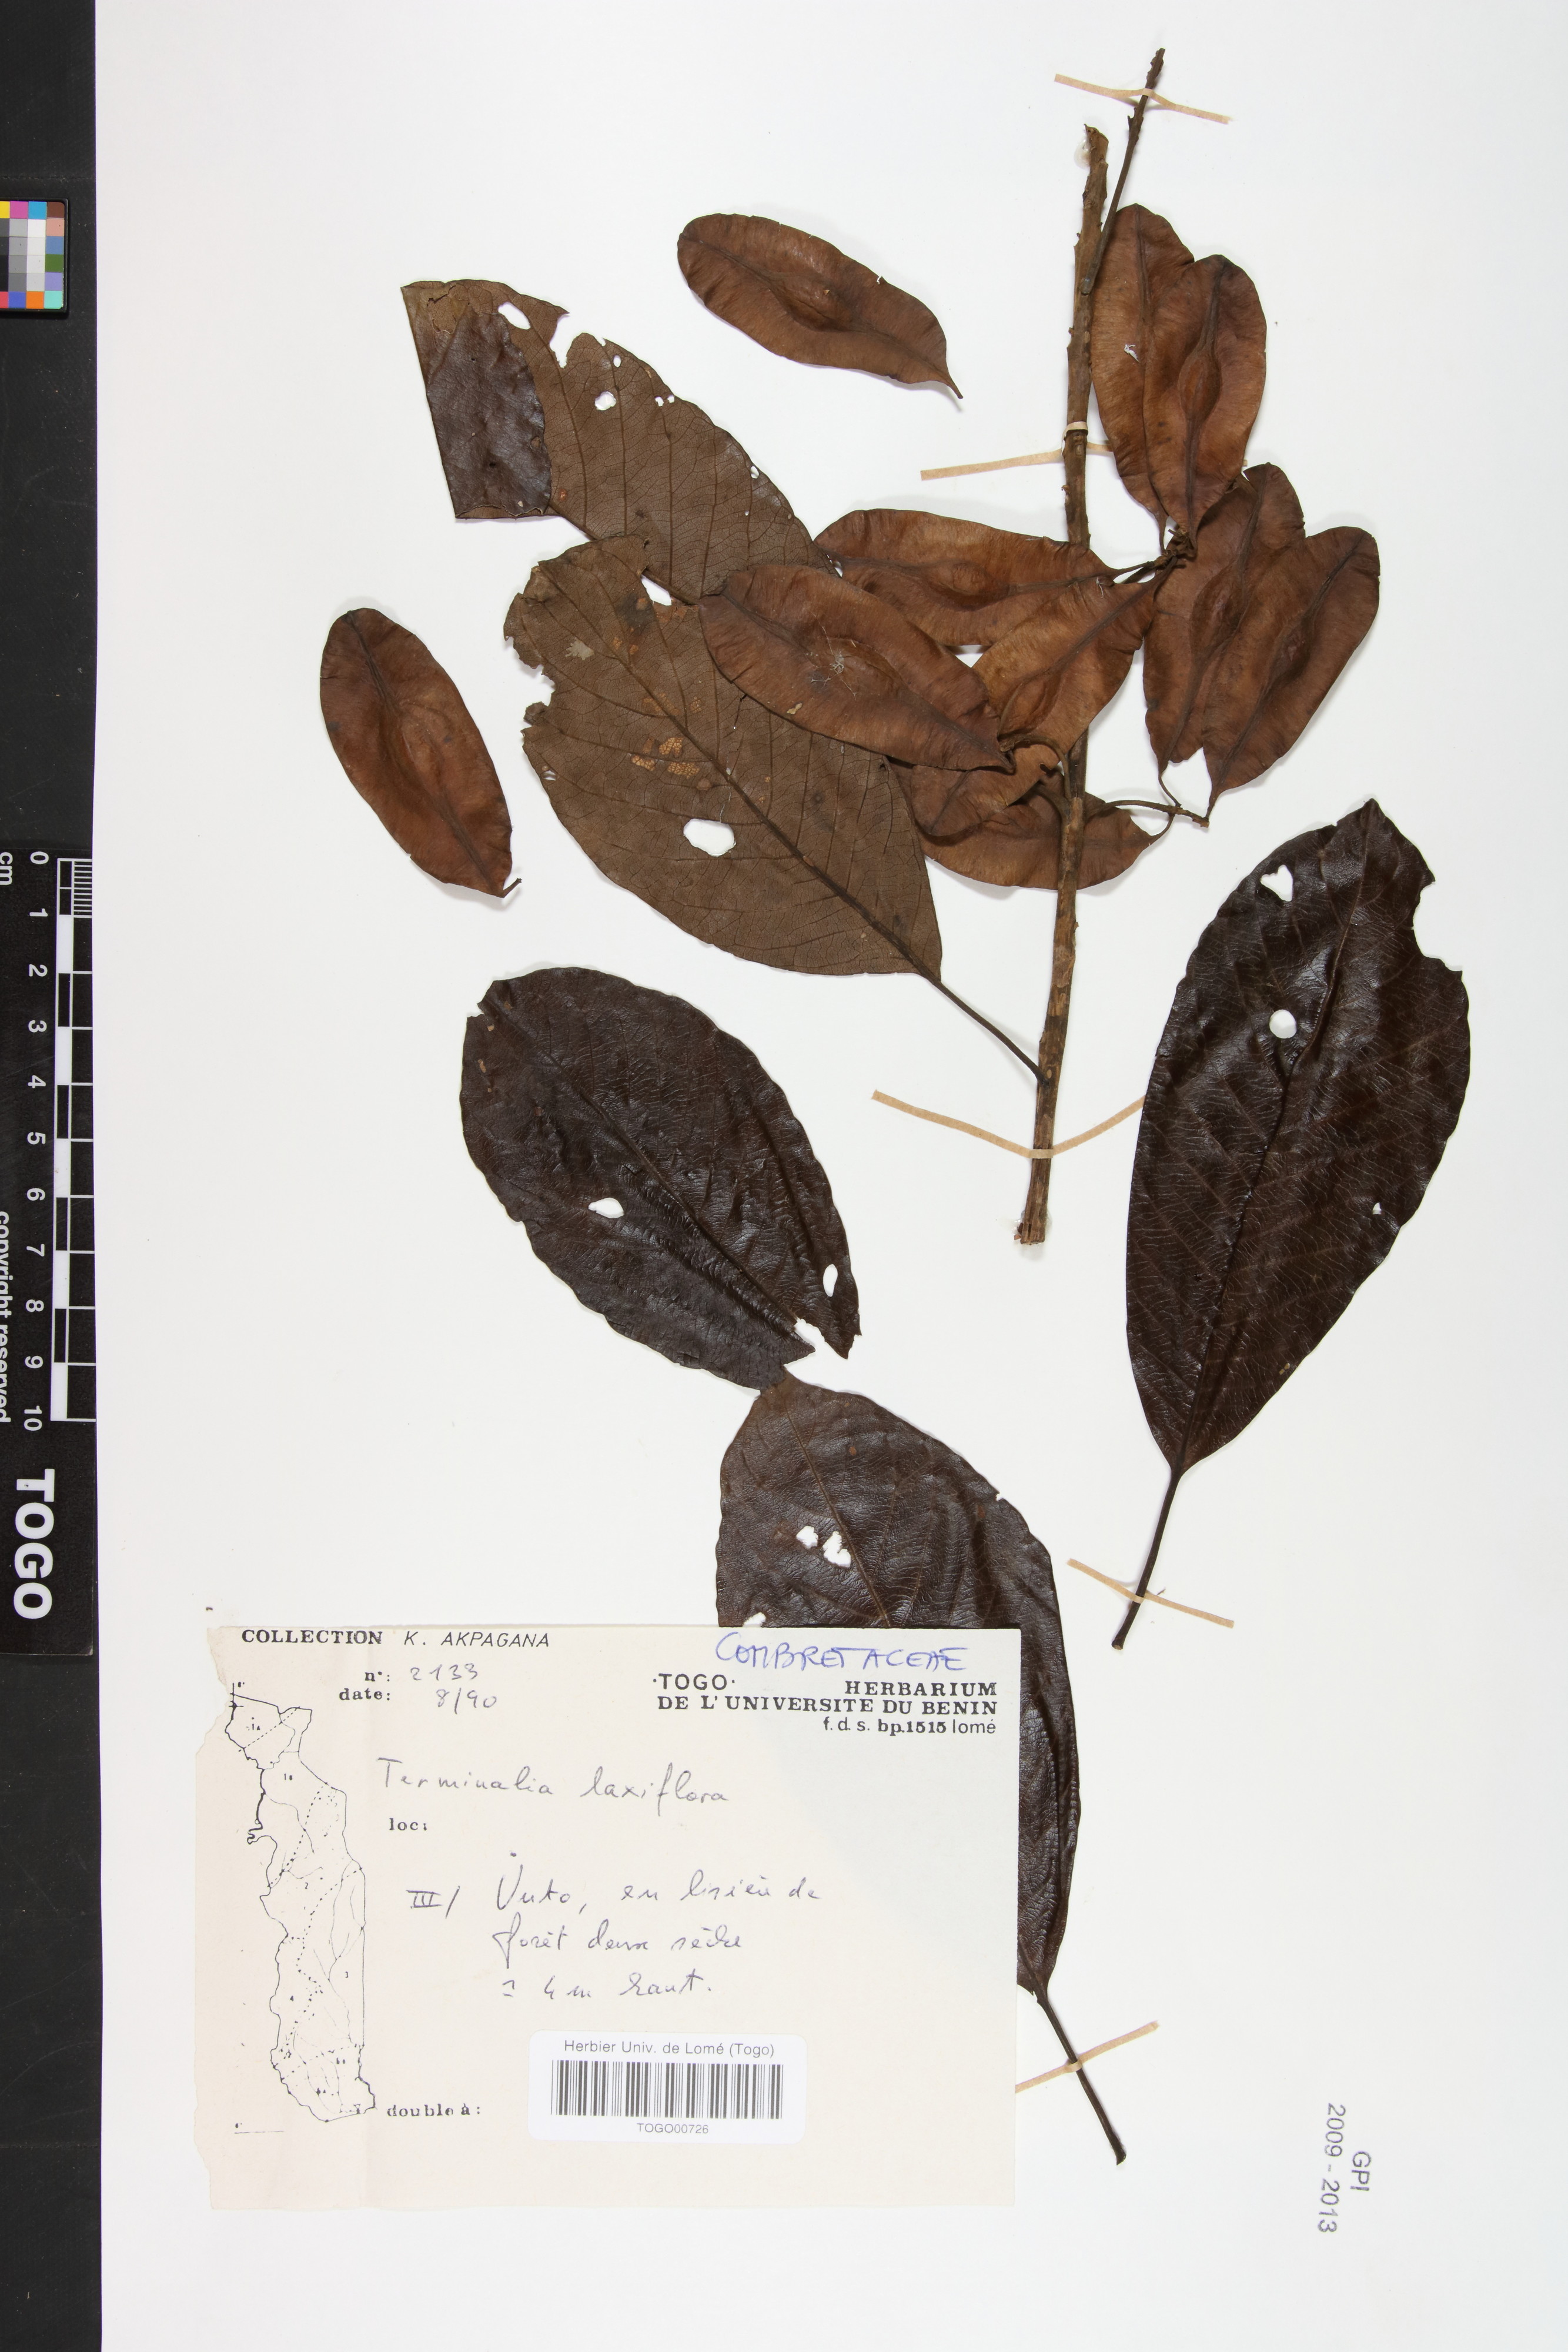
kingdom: Plantae
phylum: Tracheophyta
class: Magnoliopsida
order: Myrtales
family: Combretaceae
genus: Terminalia
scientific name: Terminalia laxiflora
